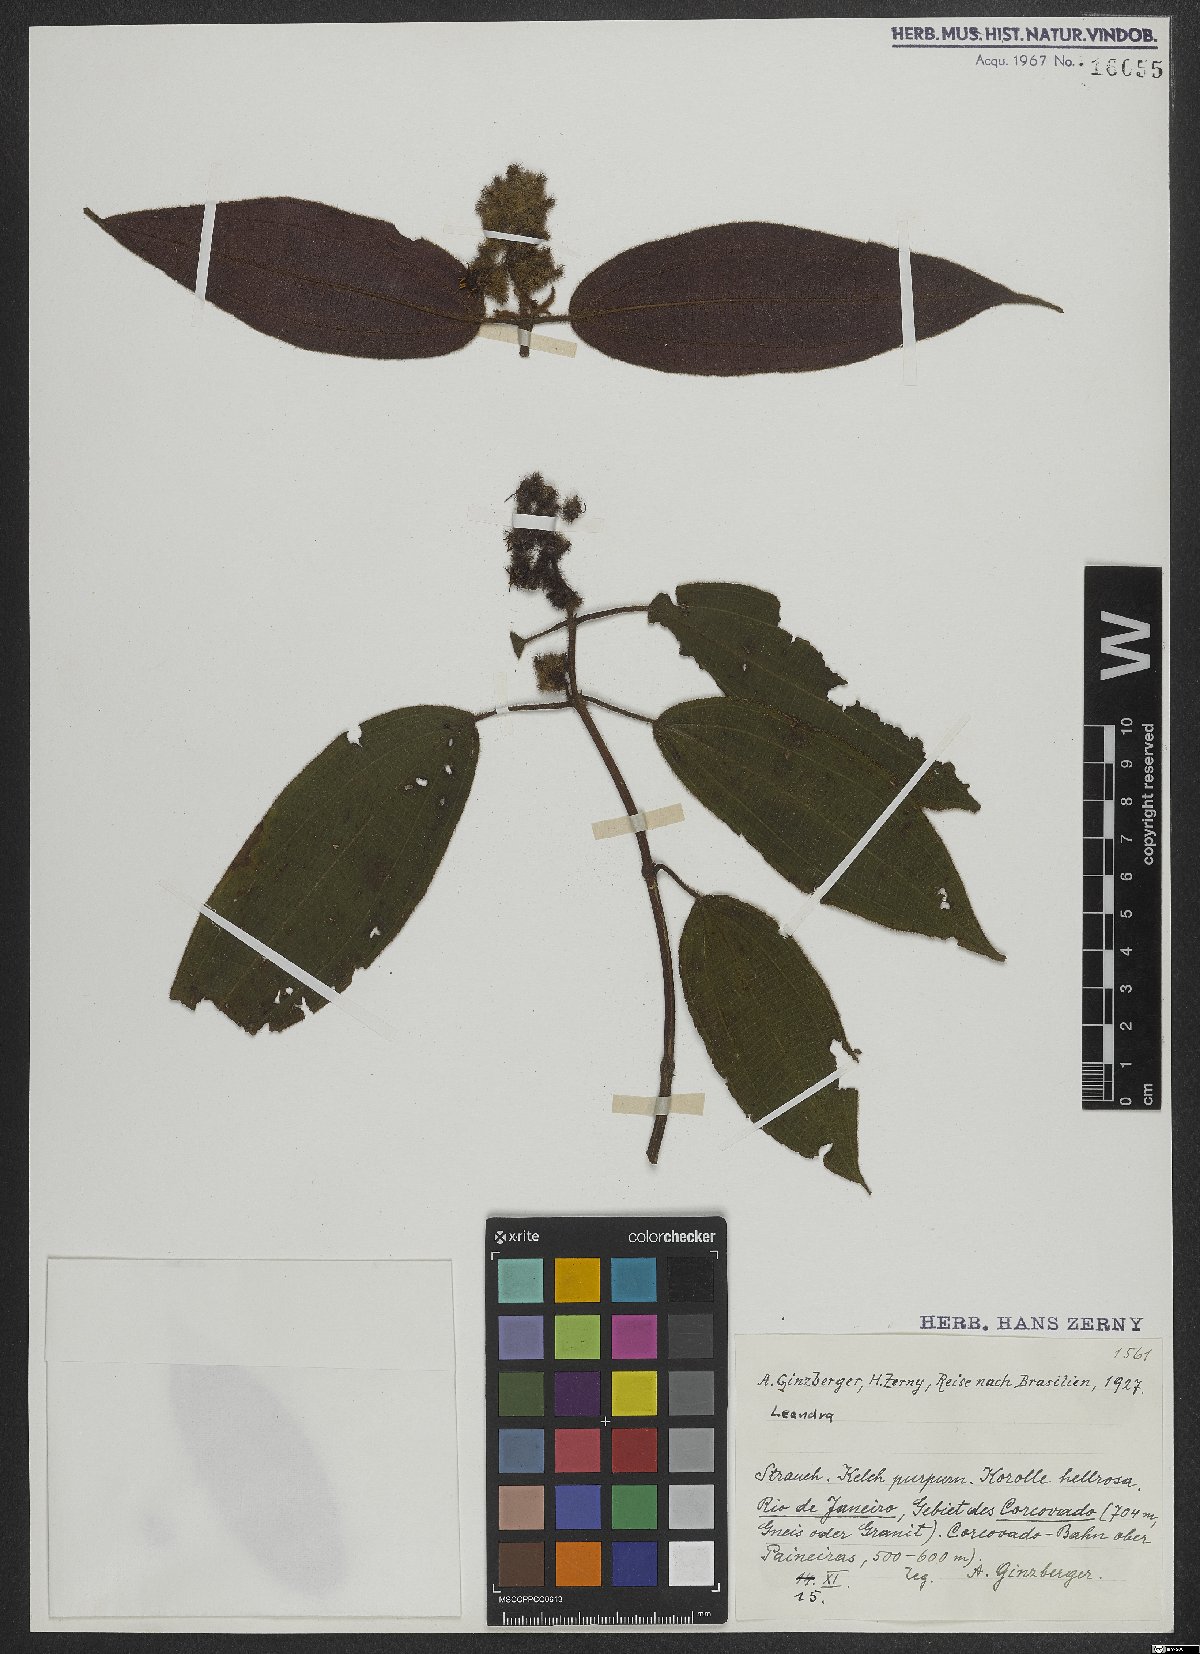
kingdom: Plantae
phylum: Tracheophyta
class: Magnoliopsida
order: Myrtales
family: Melastomataceae
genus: Miconia
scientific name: Miconia
